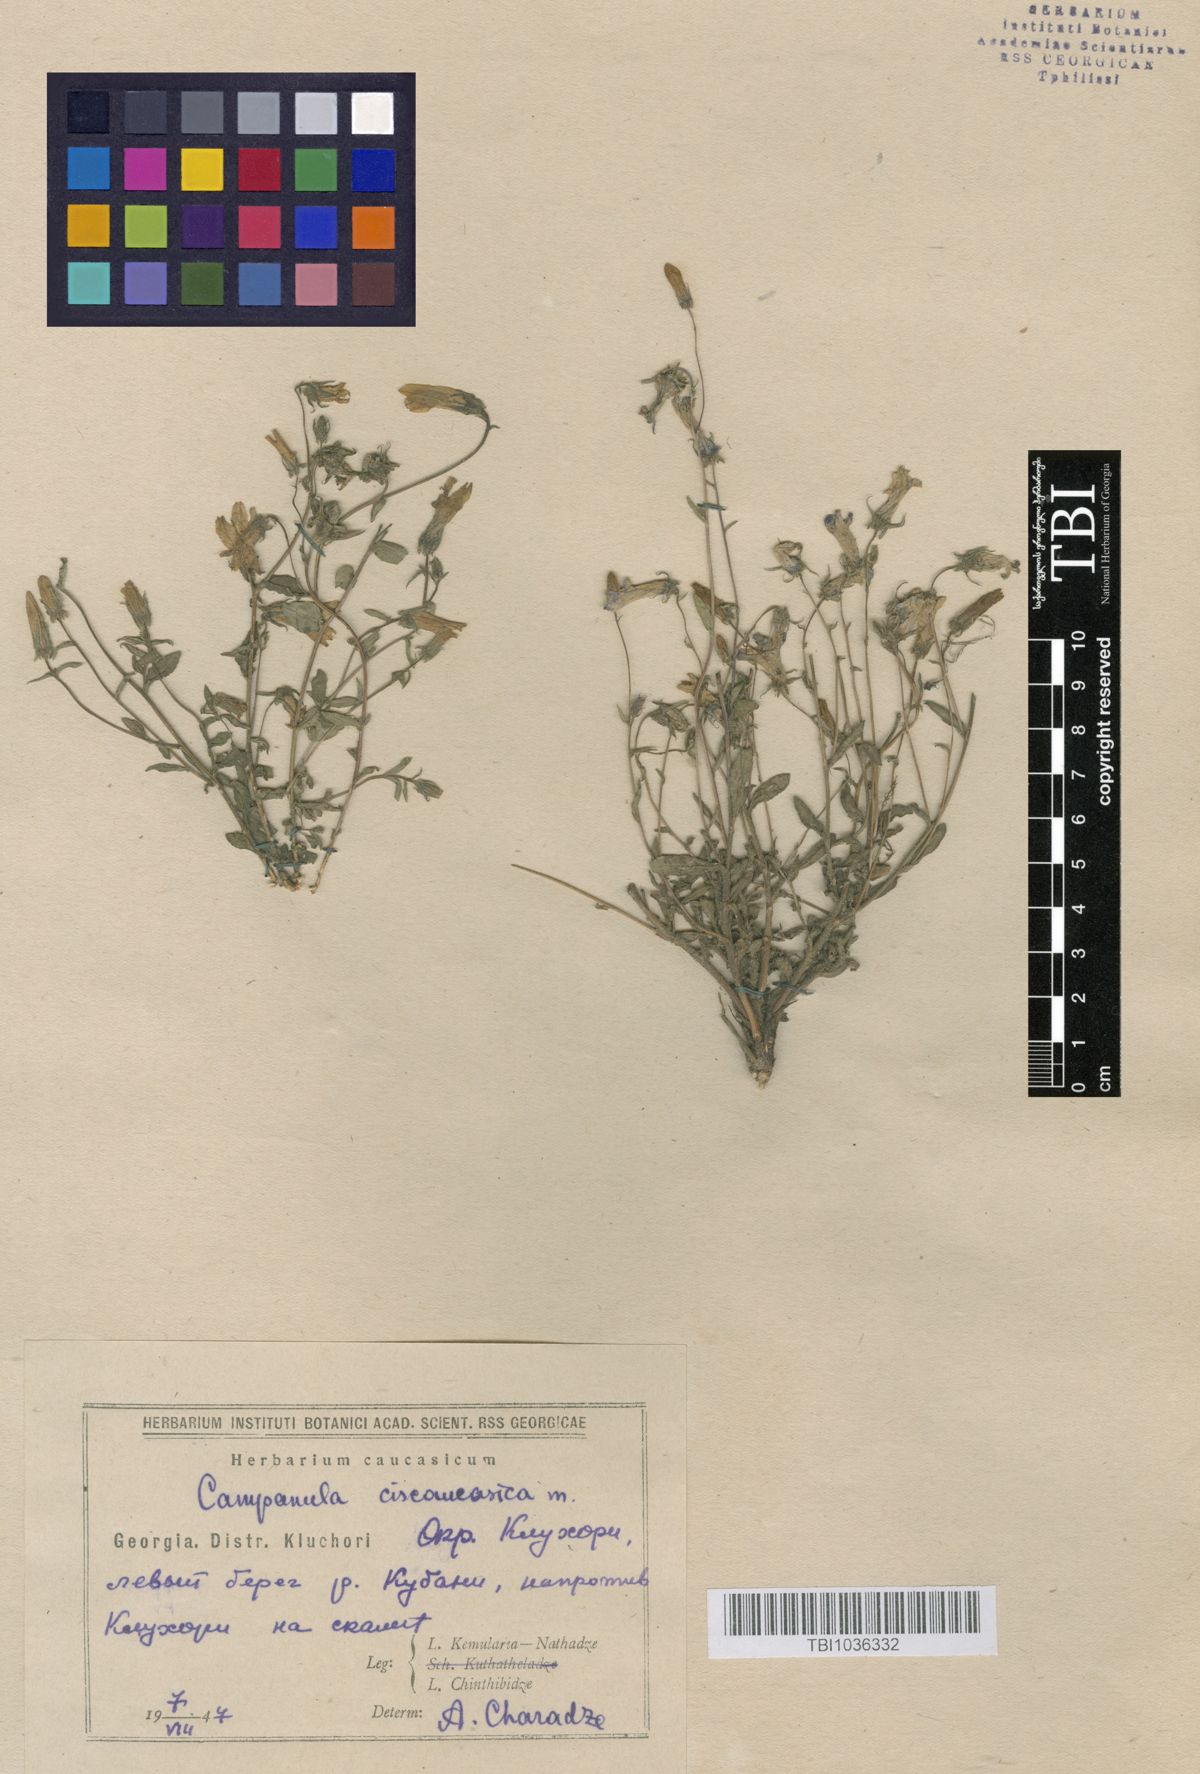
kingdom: Plantae
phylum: Tracheophyta
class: Magnoliopsida
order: Asterales
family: Campanulaceae
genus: Campanula
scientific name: Campanula sibirica
